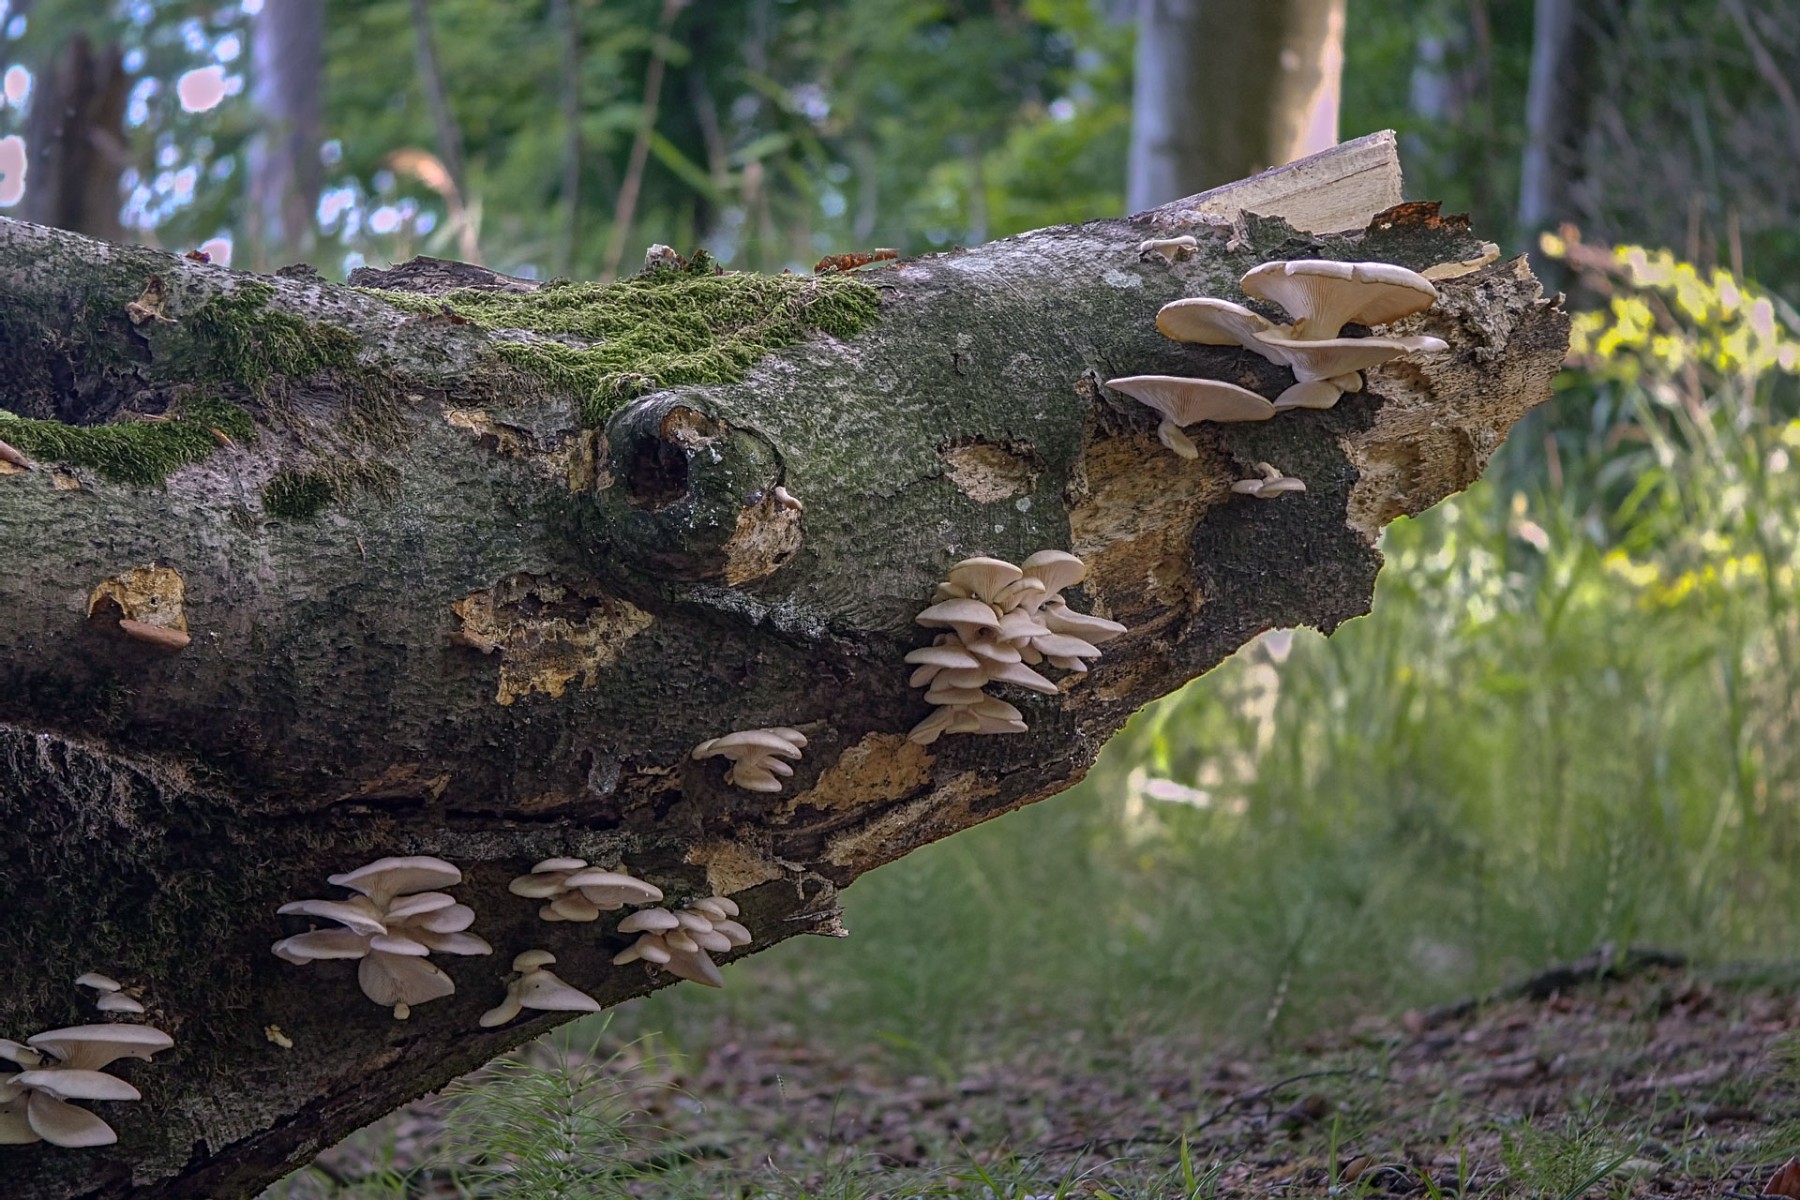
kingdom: Fungi
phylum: Basidiomycota
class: Agaricomycetes
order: Agaricales
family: Pleurotaceae
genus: Pleurotus
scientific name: Pleurotus pulmonarius
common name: sommer-østershat
